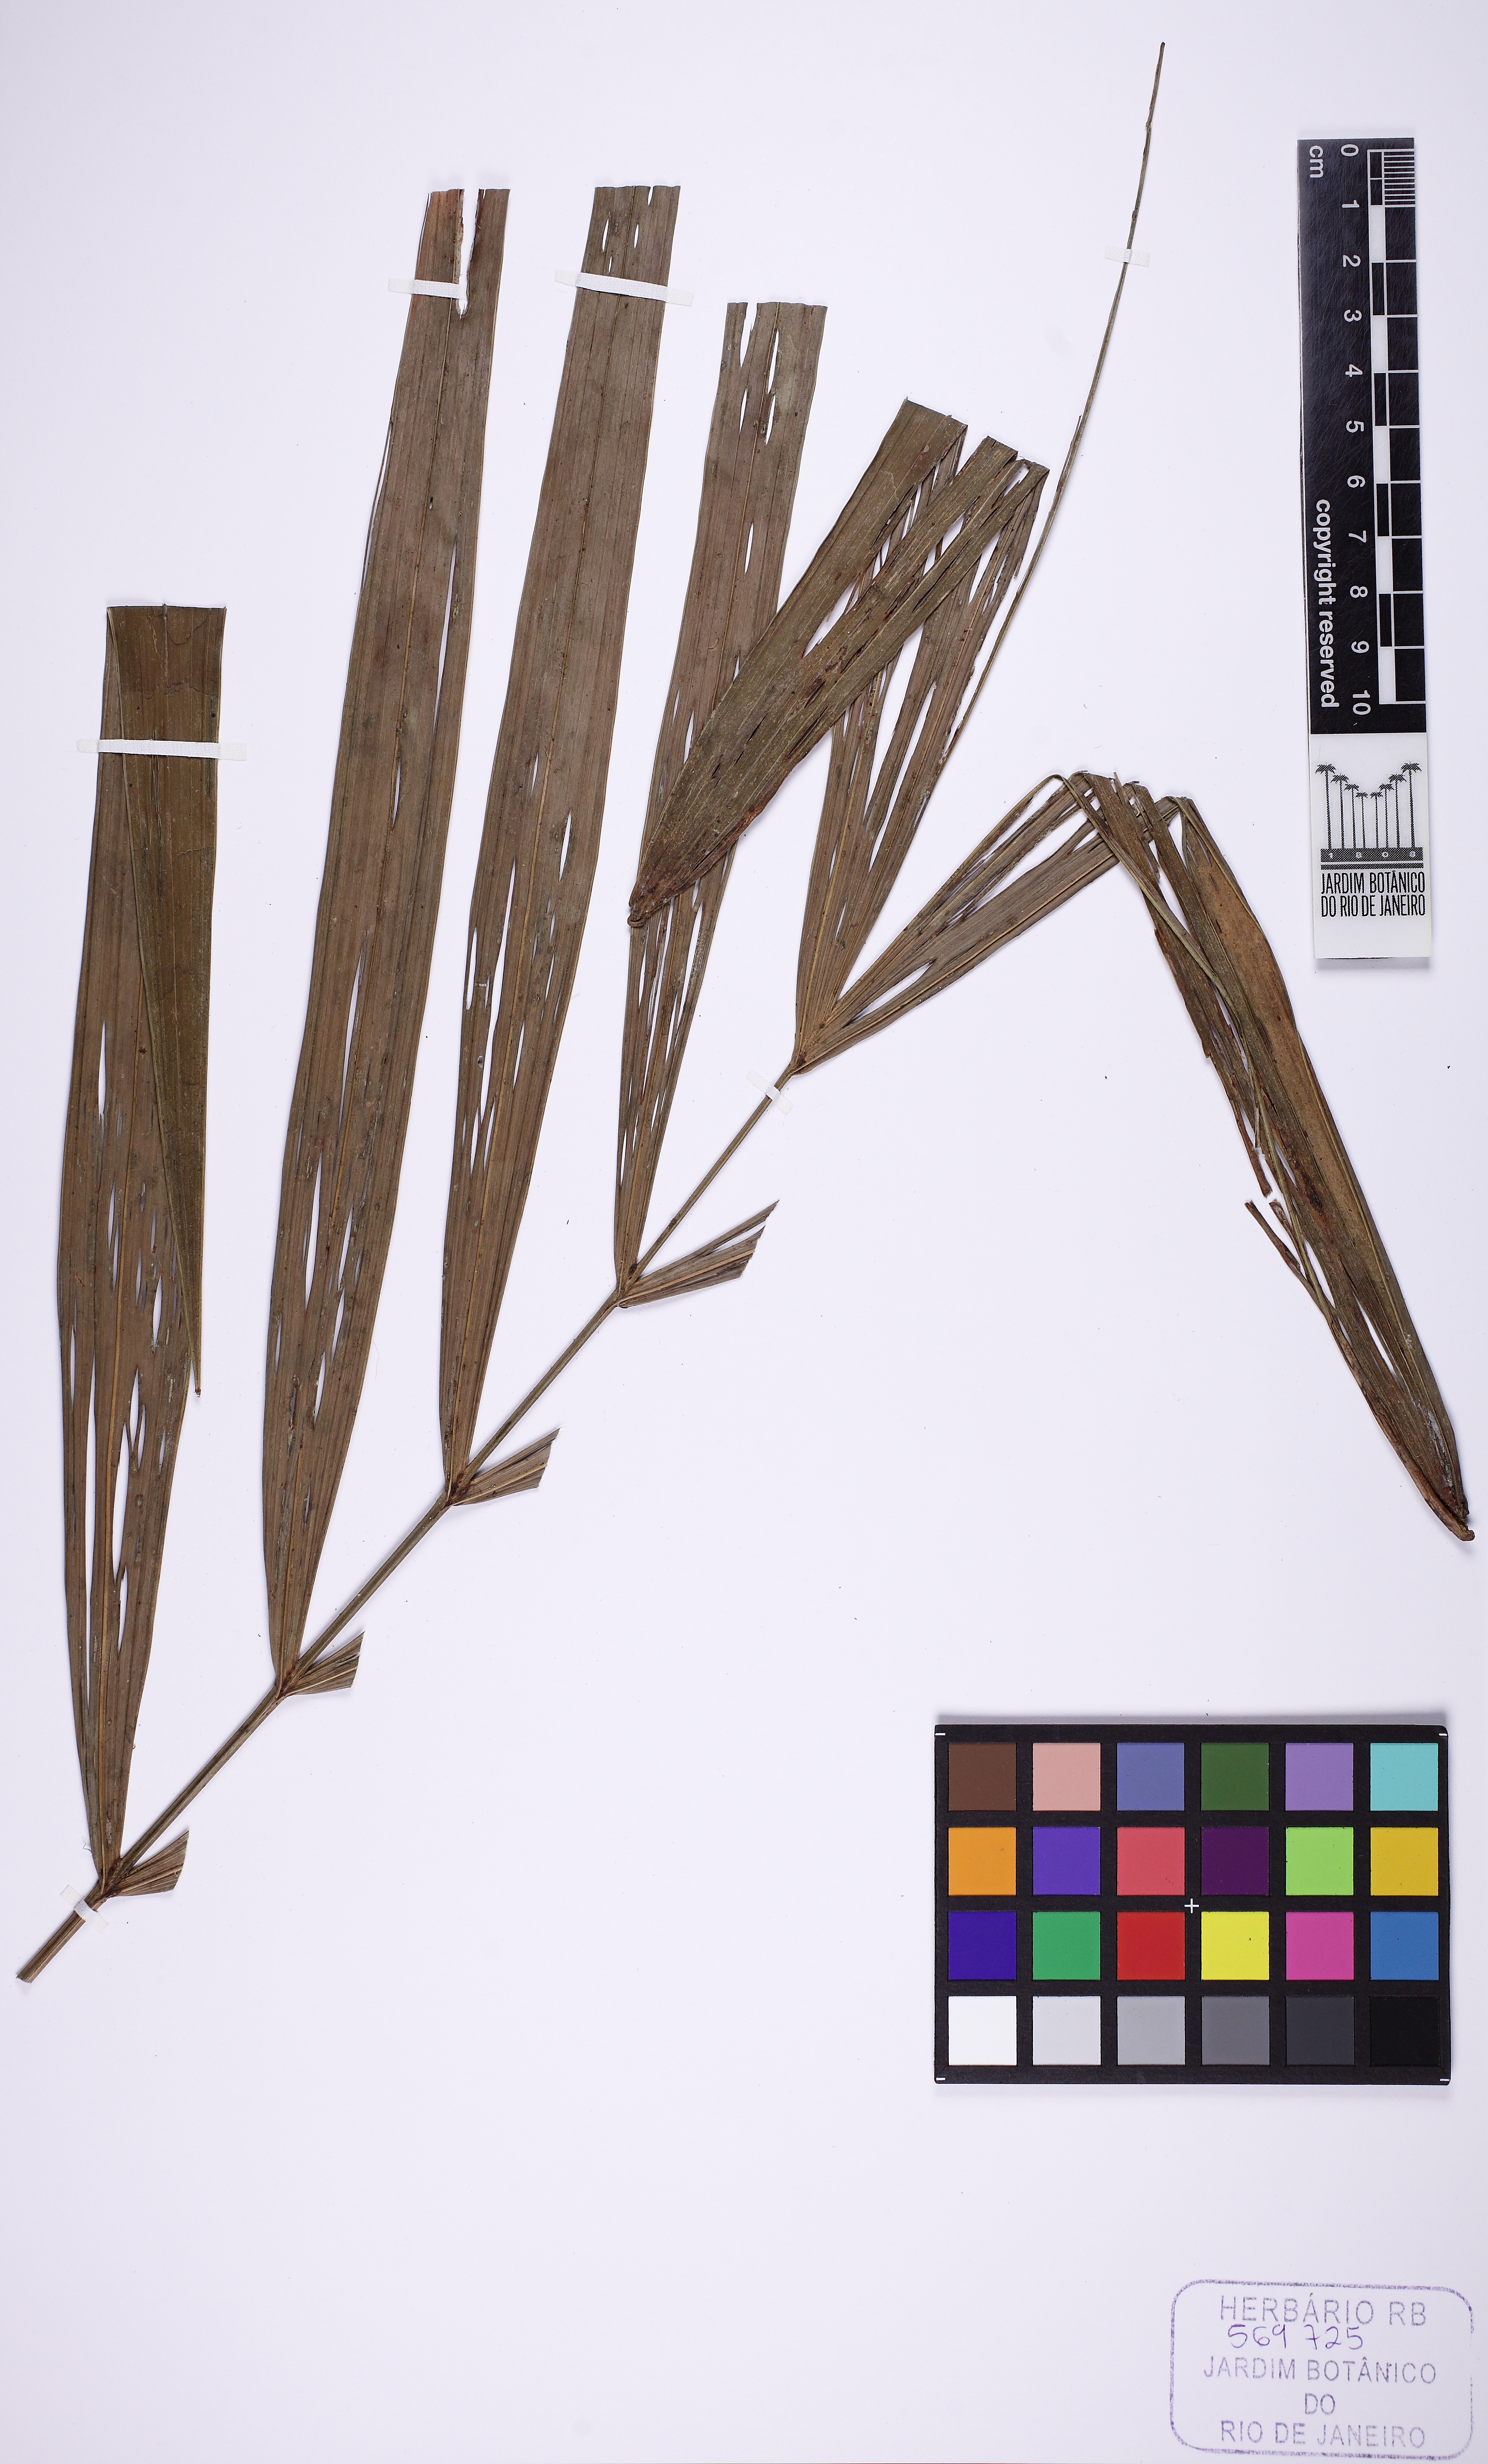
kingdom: Plantae
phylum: Tracheophyta
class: Liliopsida
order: Arecales
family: Arecaceae
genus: Euterpe
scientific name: Euterpe oleracea
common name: Assai palm
